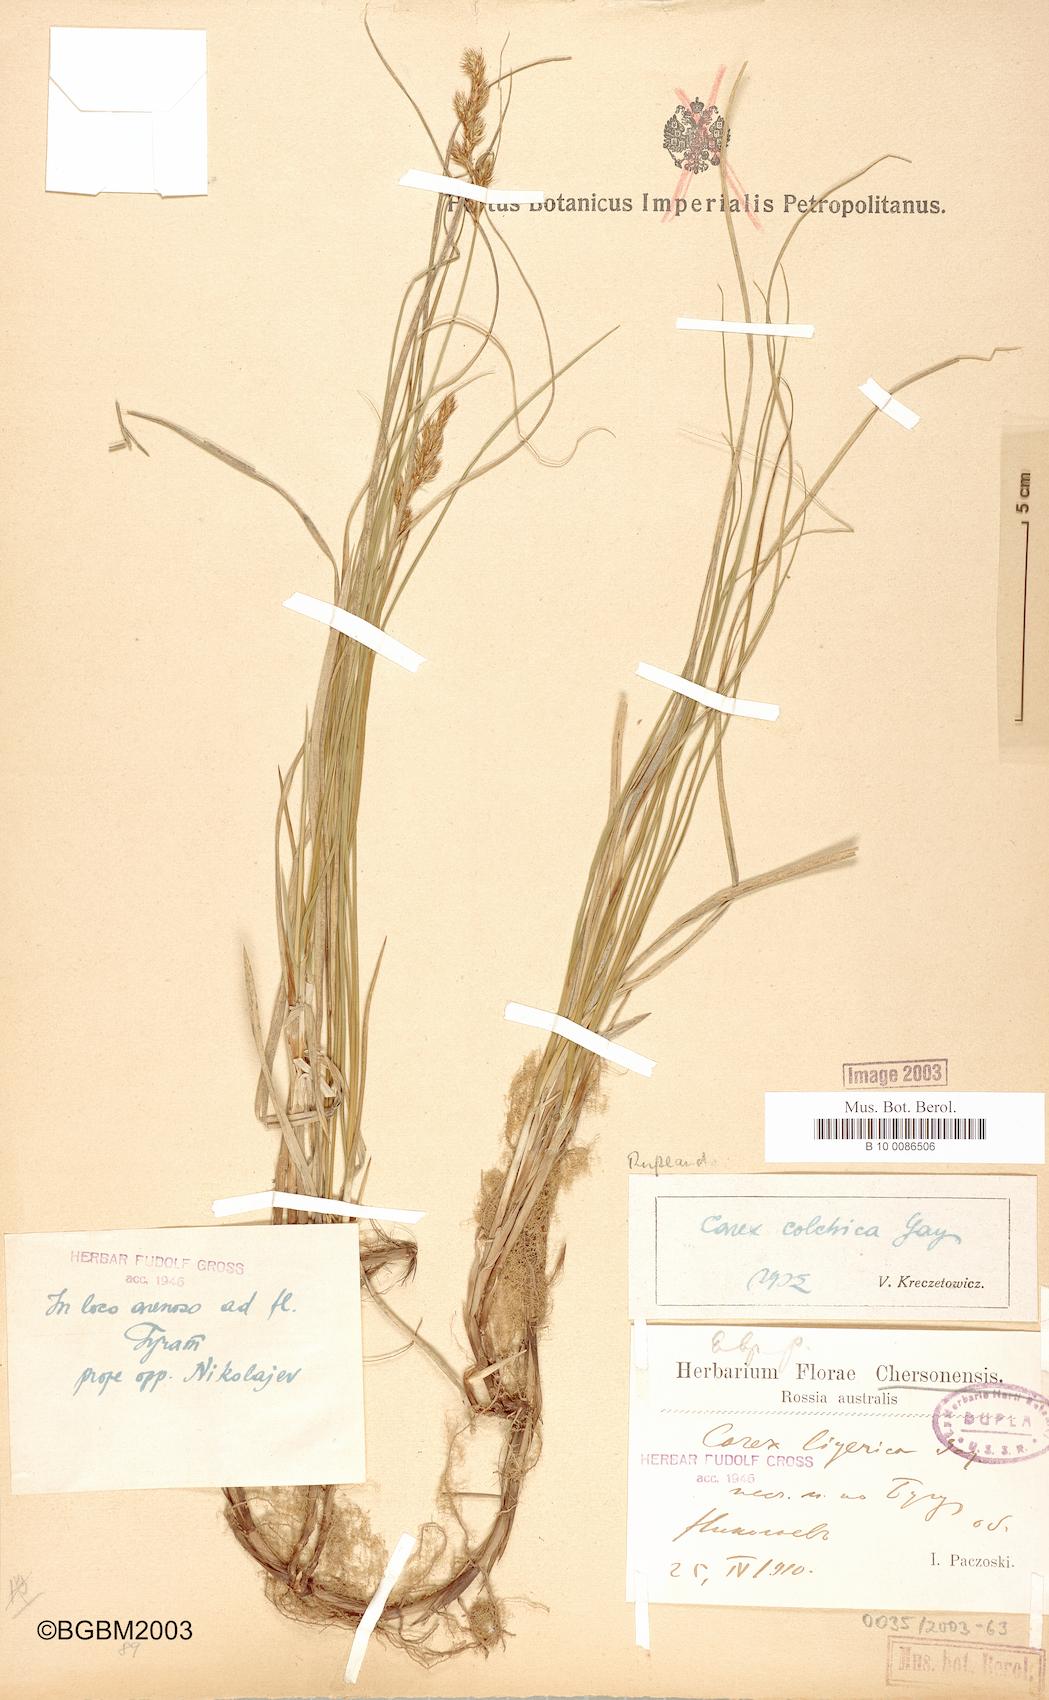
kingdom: Plantae
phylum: Tracheophyta
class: Liliopsida
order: Poales
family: Cyperaceae
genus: Carex
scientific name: Carex colchica
